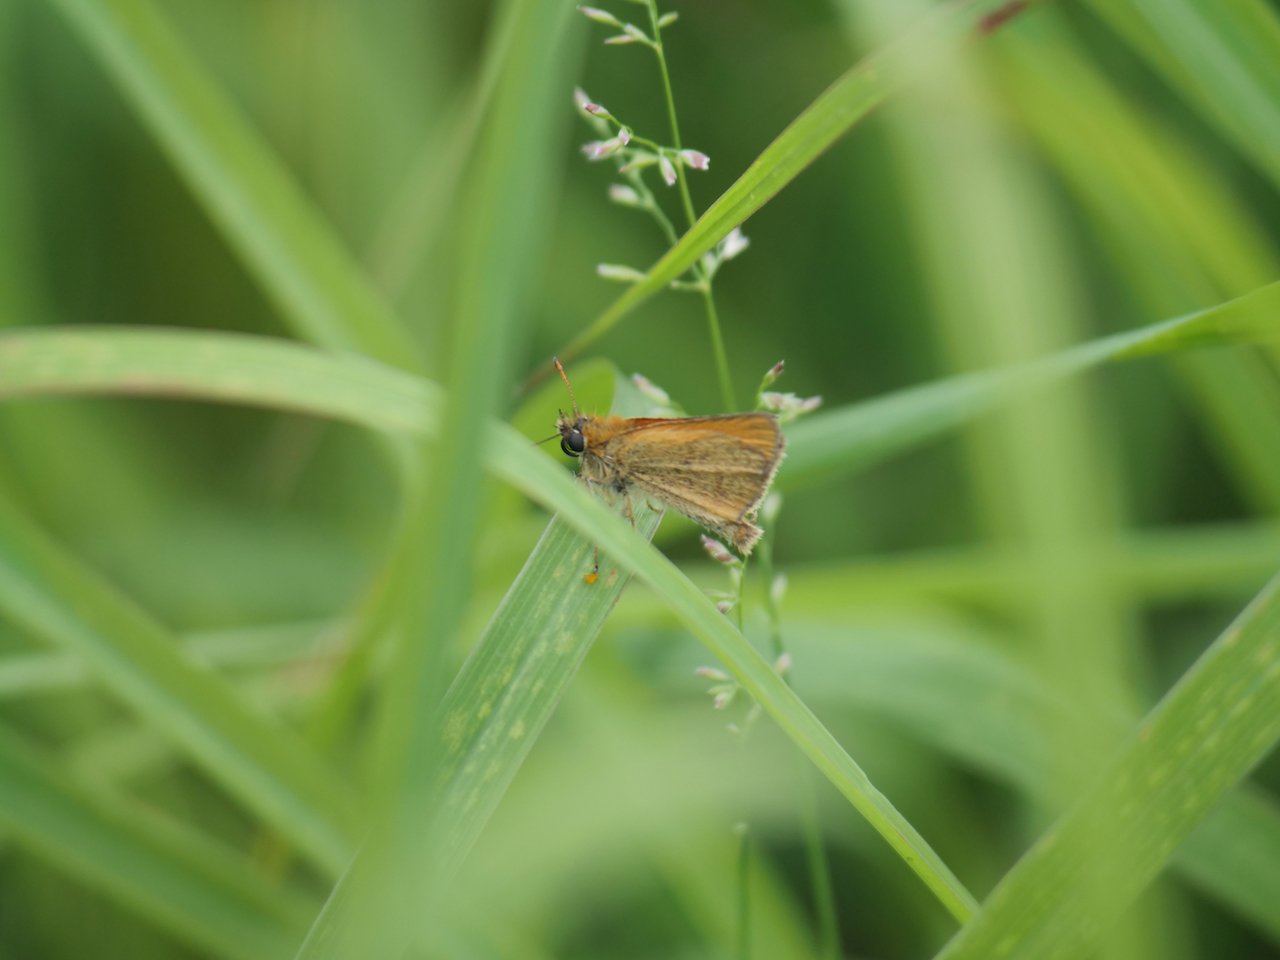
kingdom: Animalia
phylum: Arthropoda
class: Insecta
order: Lepidoptera
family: Hesperiidae
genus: Thymelicus
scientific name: Thymelicus lineola
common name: European Skipper
